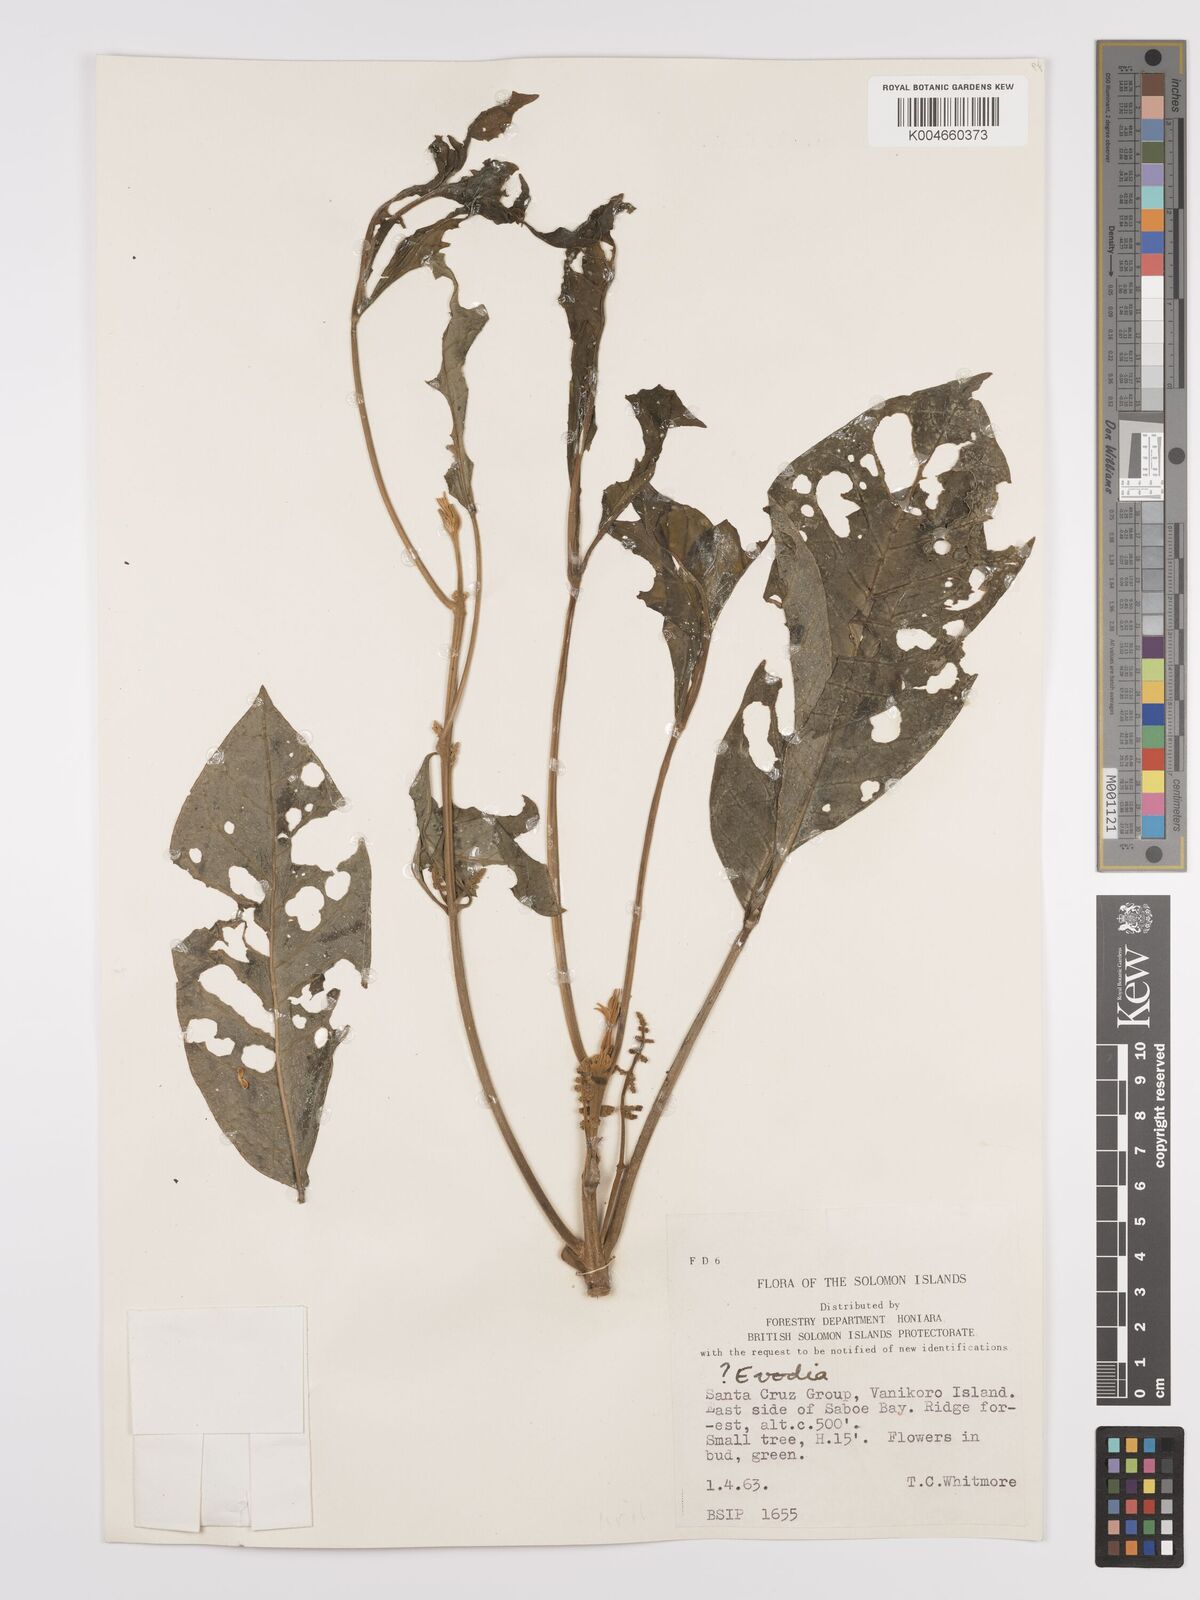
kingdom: Plantae
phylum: Tracheophyta
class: Magnoliopsida
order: Sapindales
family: Rutaceae
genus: Euodia
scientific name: Euodia
